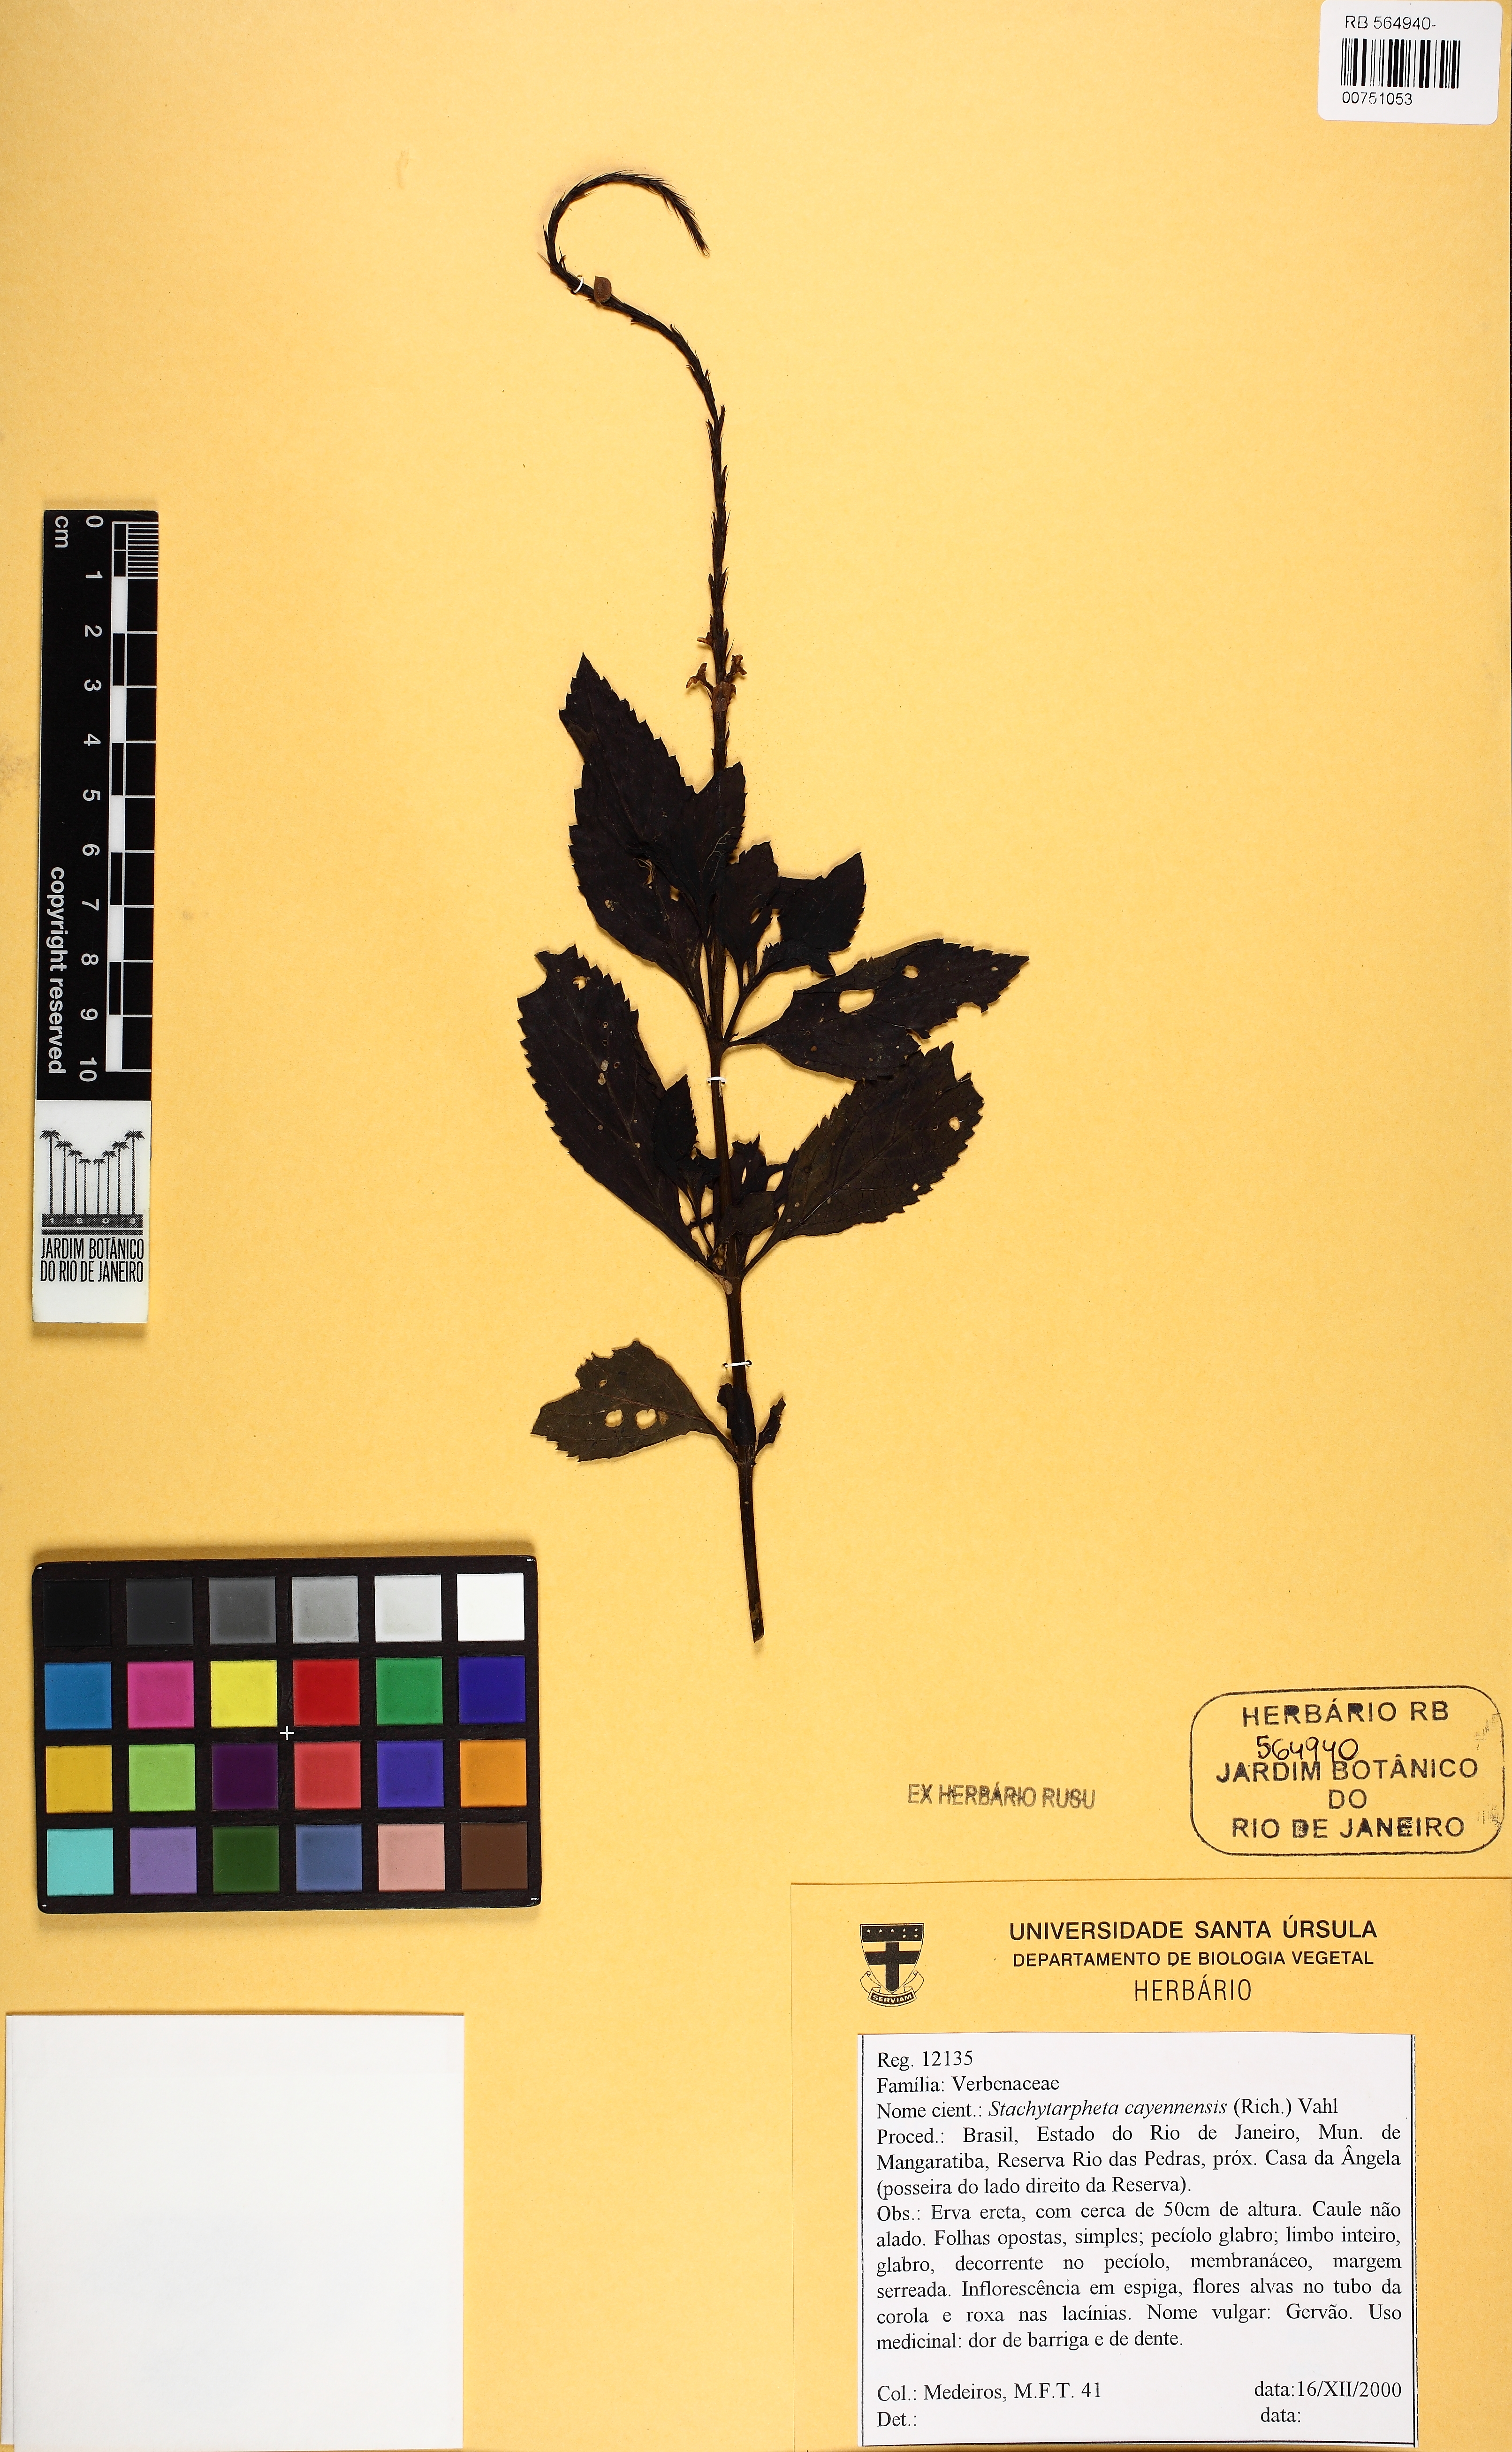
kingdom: Plantae
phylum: Tracheophyta
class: Magnoliopsida
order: Lamiales
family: Verbenaceae
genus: Stachytarpheta
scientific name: Stachytarpheta cayennensis
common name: Cayenne porterweed
